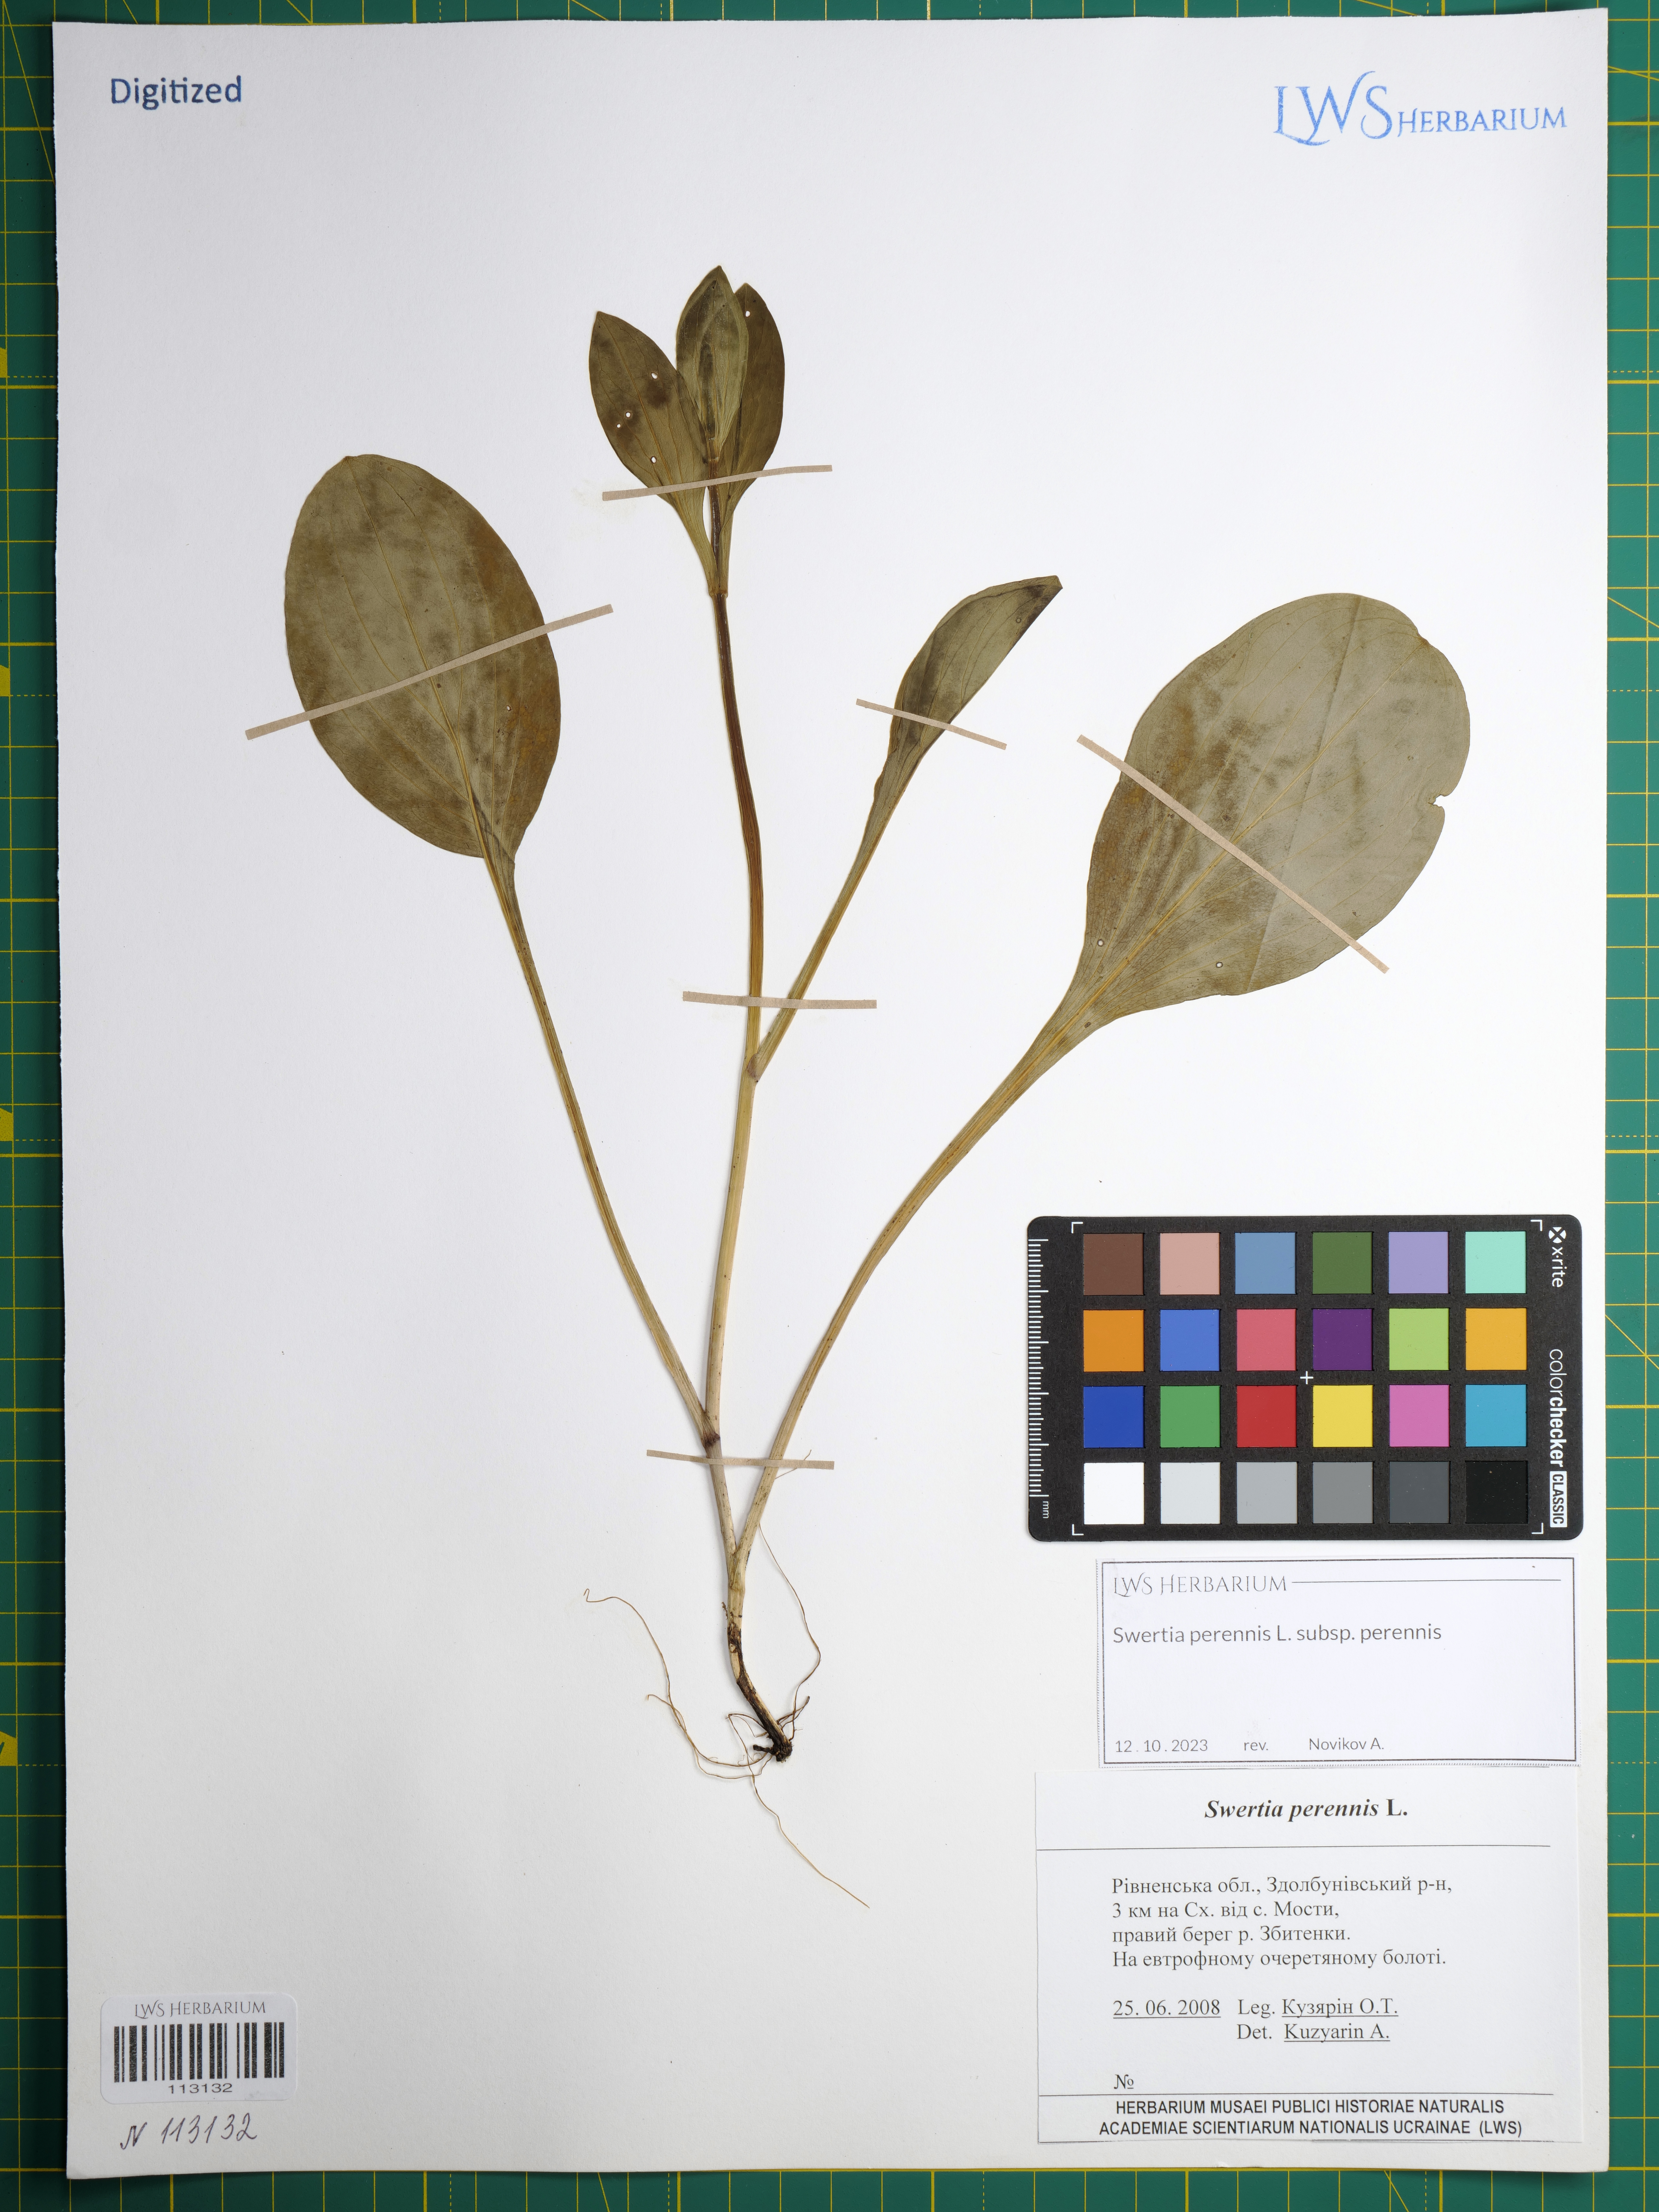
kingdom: Plantae
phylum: Tracheophyta
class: Magnoliopsida
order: Gentianales
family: Gentianaceae
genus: Swertia
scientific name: Swertia perennis
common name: Alpine bog swertia
